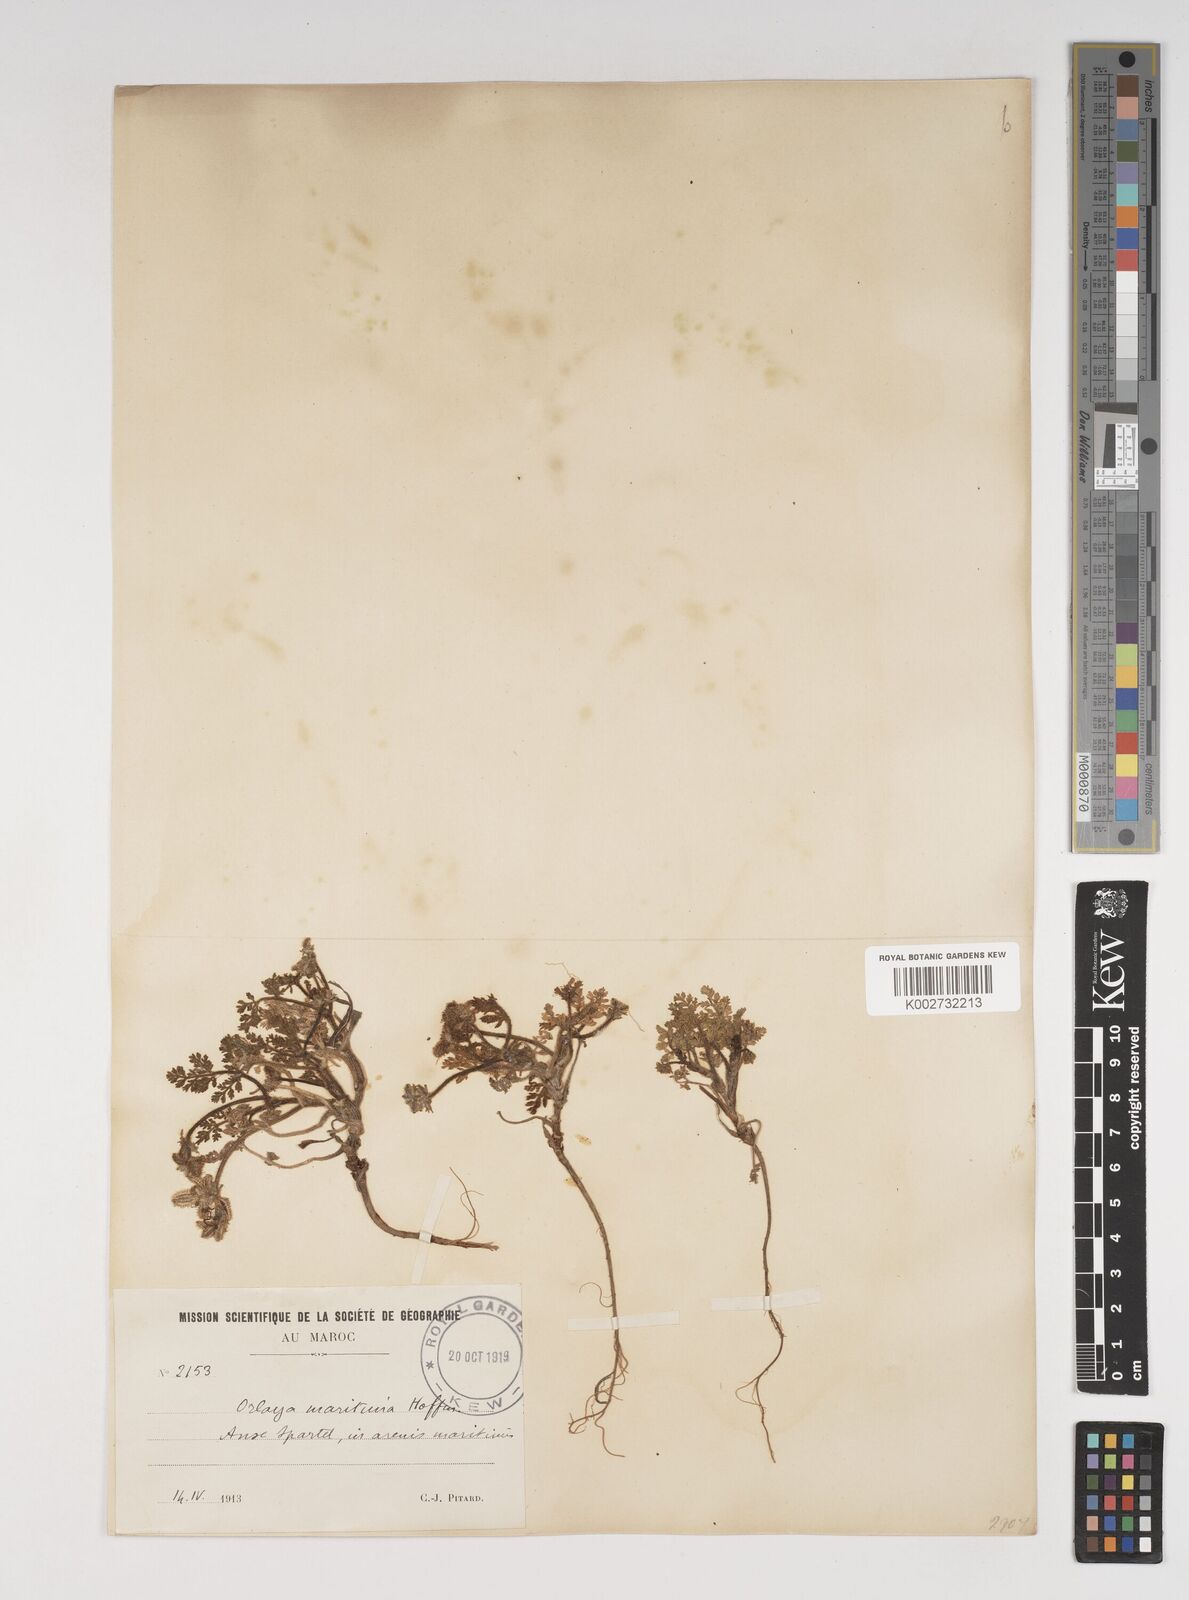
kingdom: Plantae
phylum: Tracheophyta
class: Magnoliopsida
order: Apiales
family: Apiaceae
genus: Daucus
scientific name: Daucus pumilus
